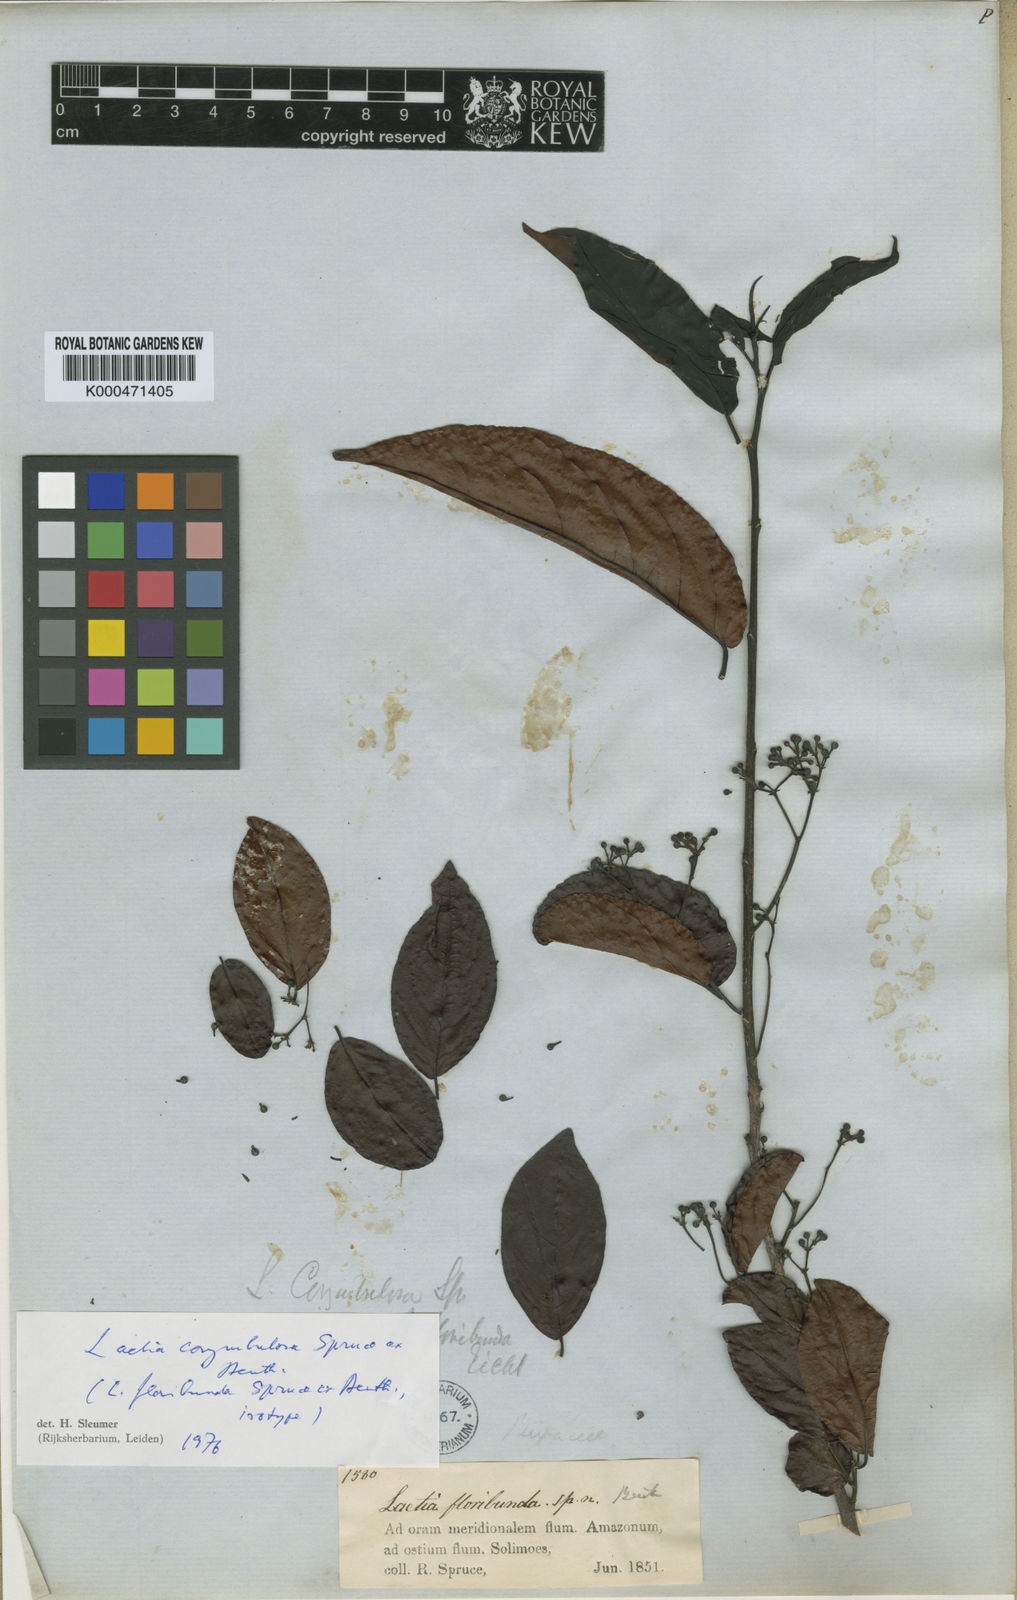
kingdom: Plantae
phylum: Tracheophyta
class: Magnoliopsida
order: Malpighiales
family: Salicaceae
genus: Casearia
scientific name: Casearia corymbulosa
